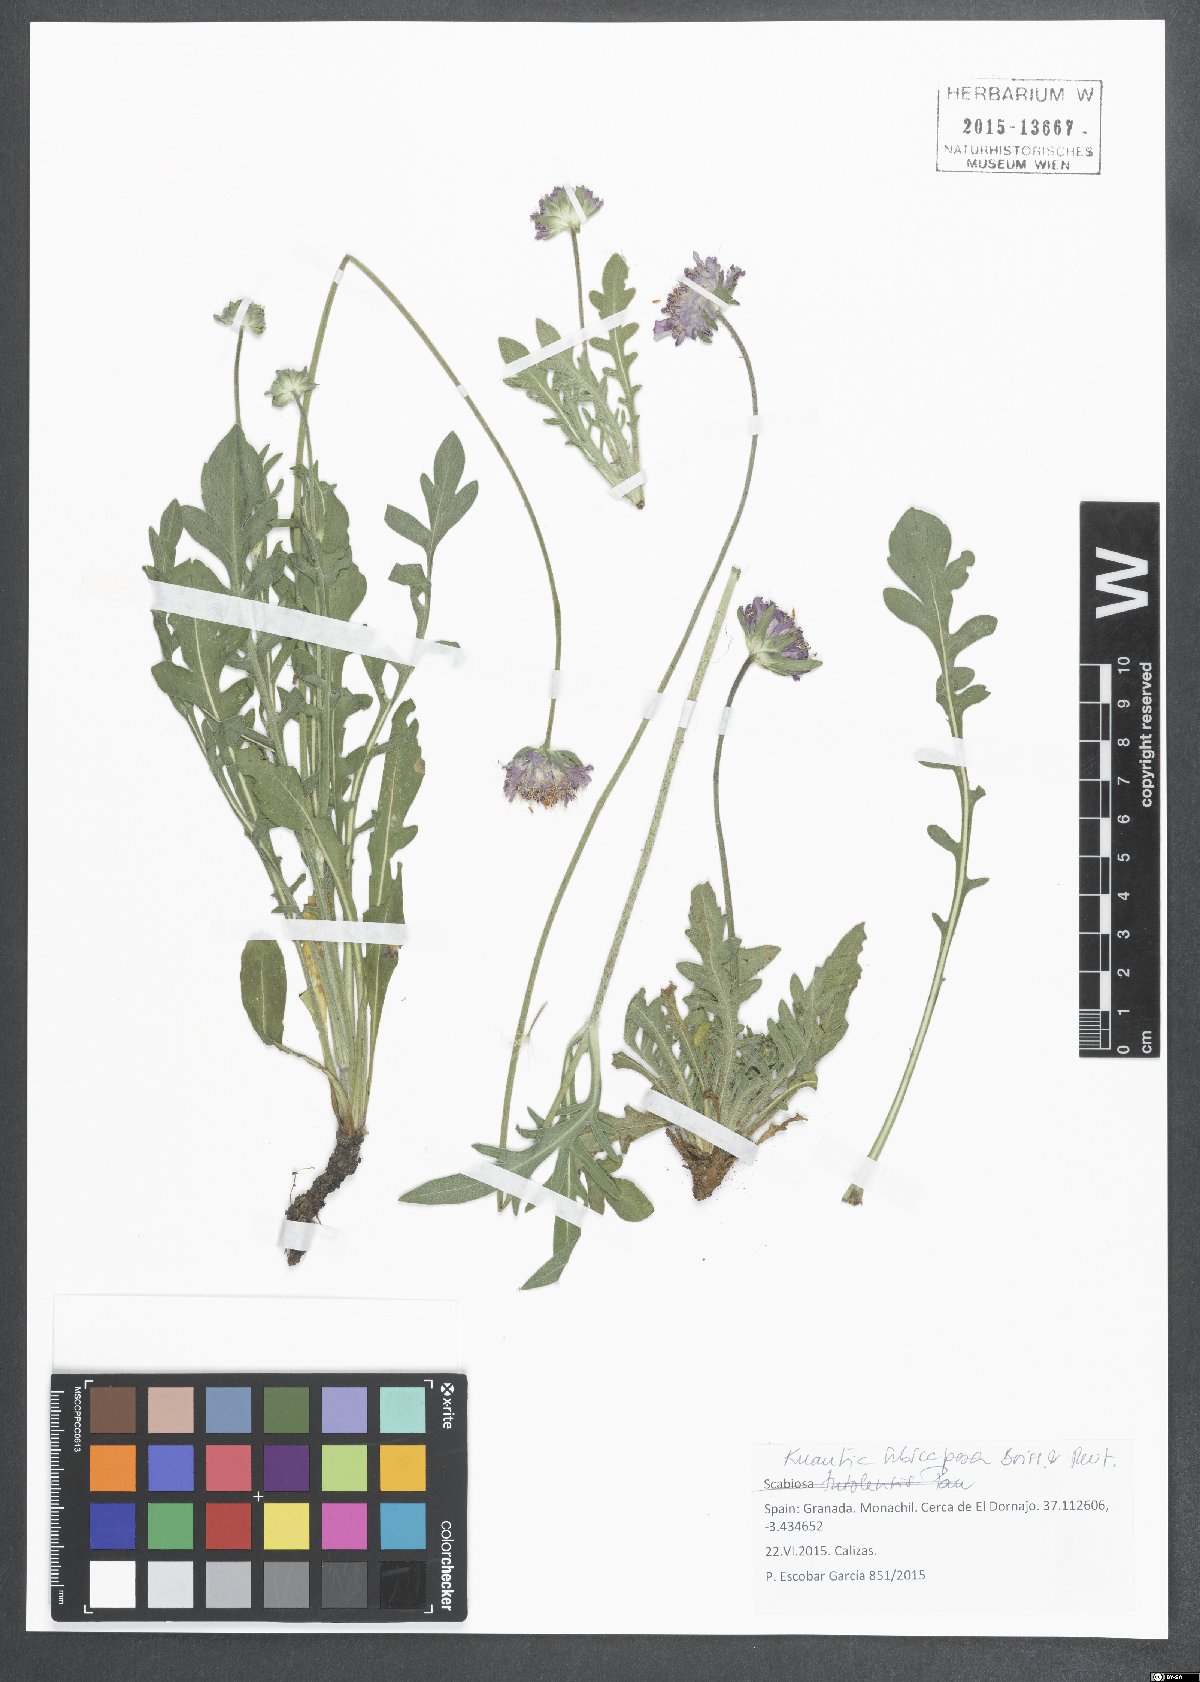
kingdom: Plantae
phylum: Tracheophyta
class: Magnoliopsida
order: Dipsacales
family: Caprifoliaceae
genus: Knautia
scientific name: Knautia subscaposa
